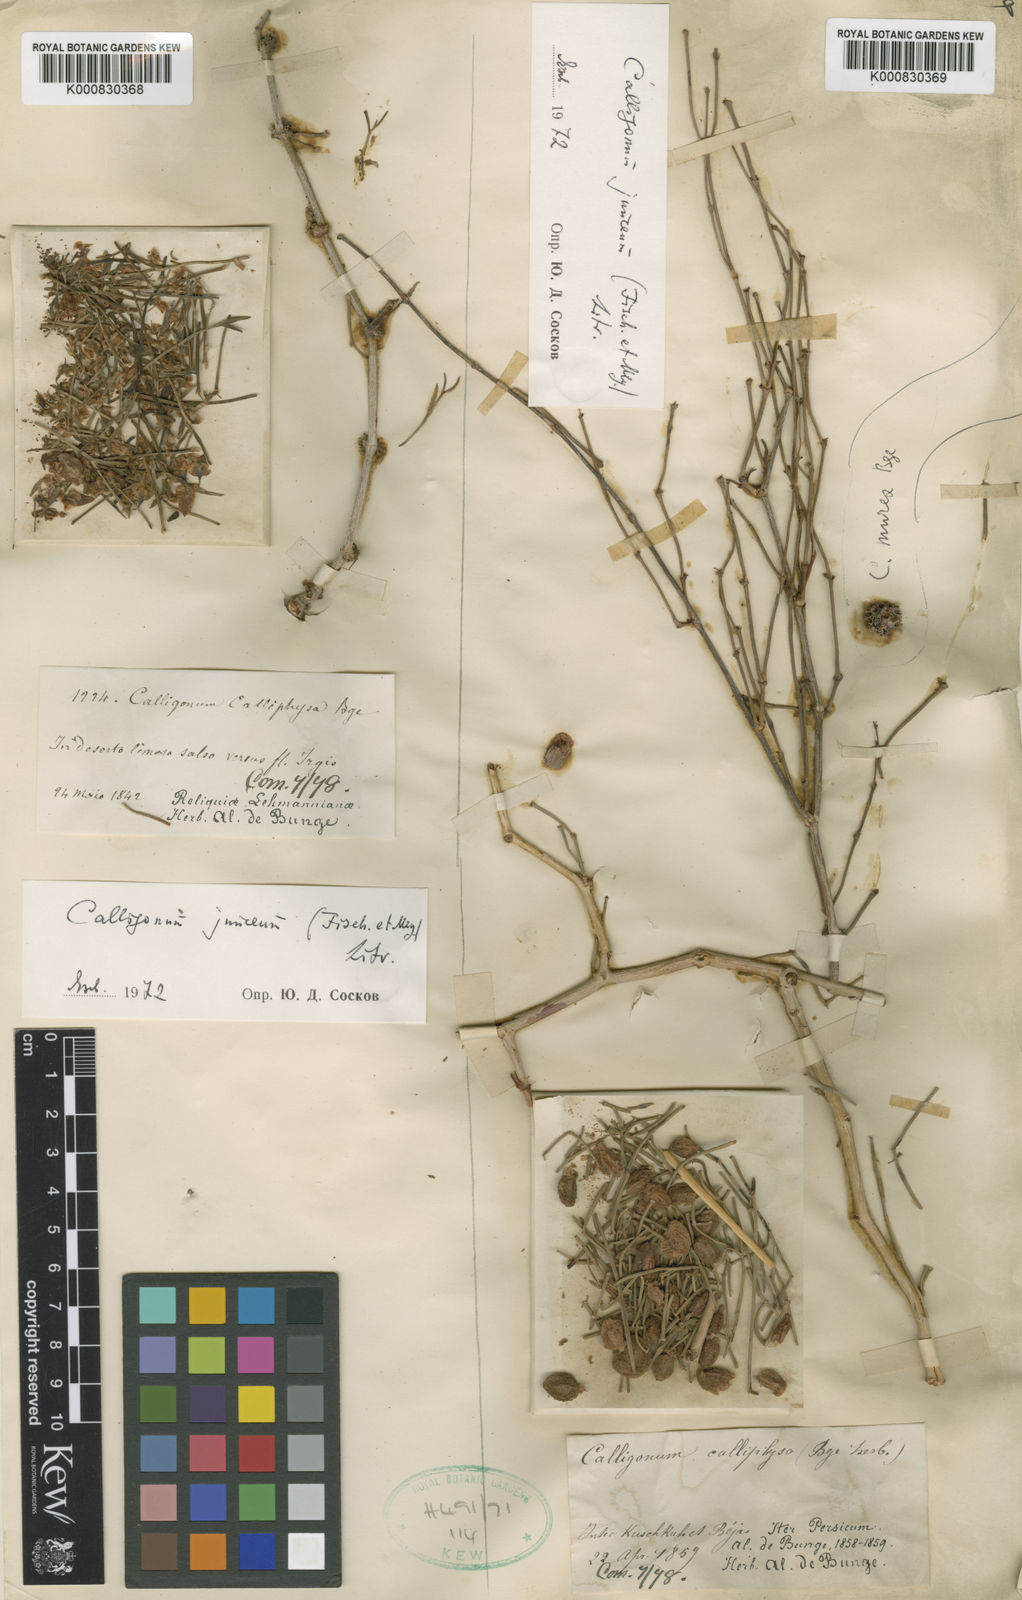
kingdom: Plantae
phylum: Tracheophyta
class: Magnoliopsida
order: Caryophyllales
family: Polygonaceae
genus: Calligonum
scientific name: Calligonum junceum
